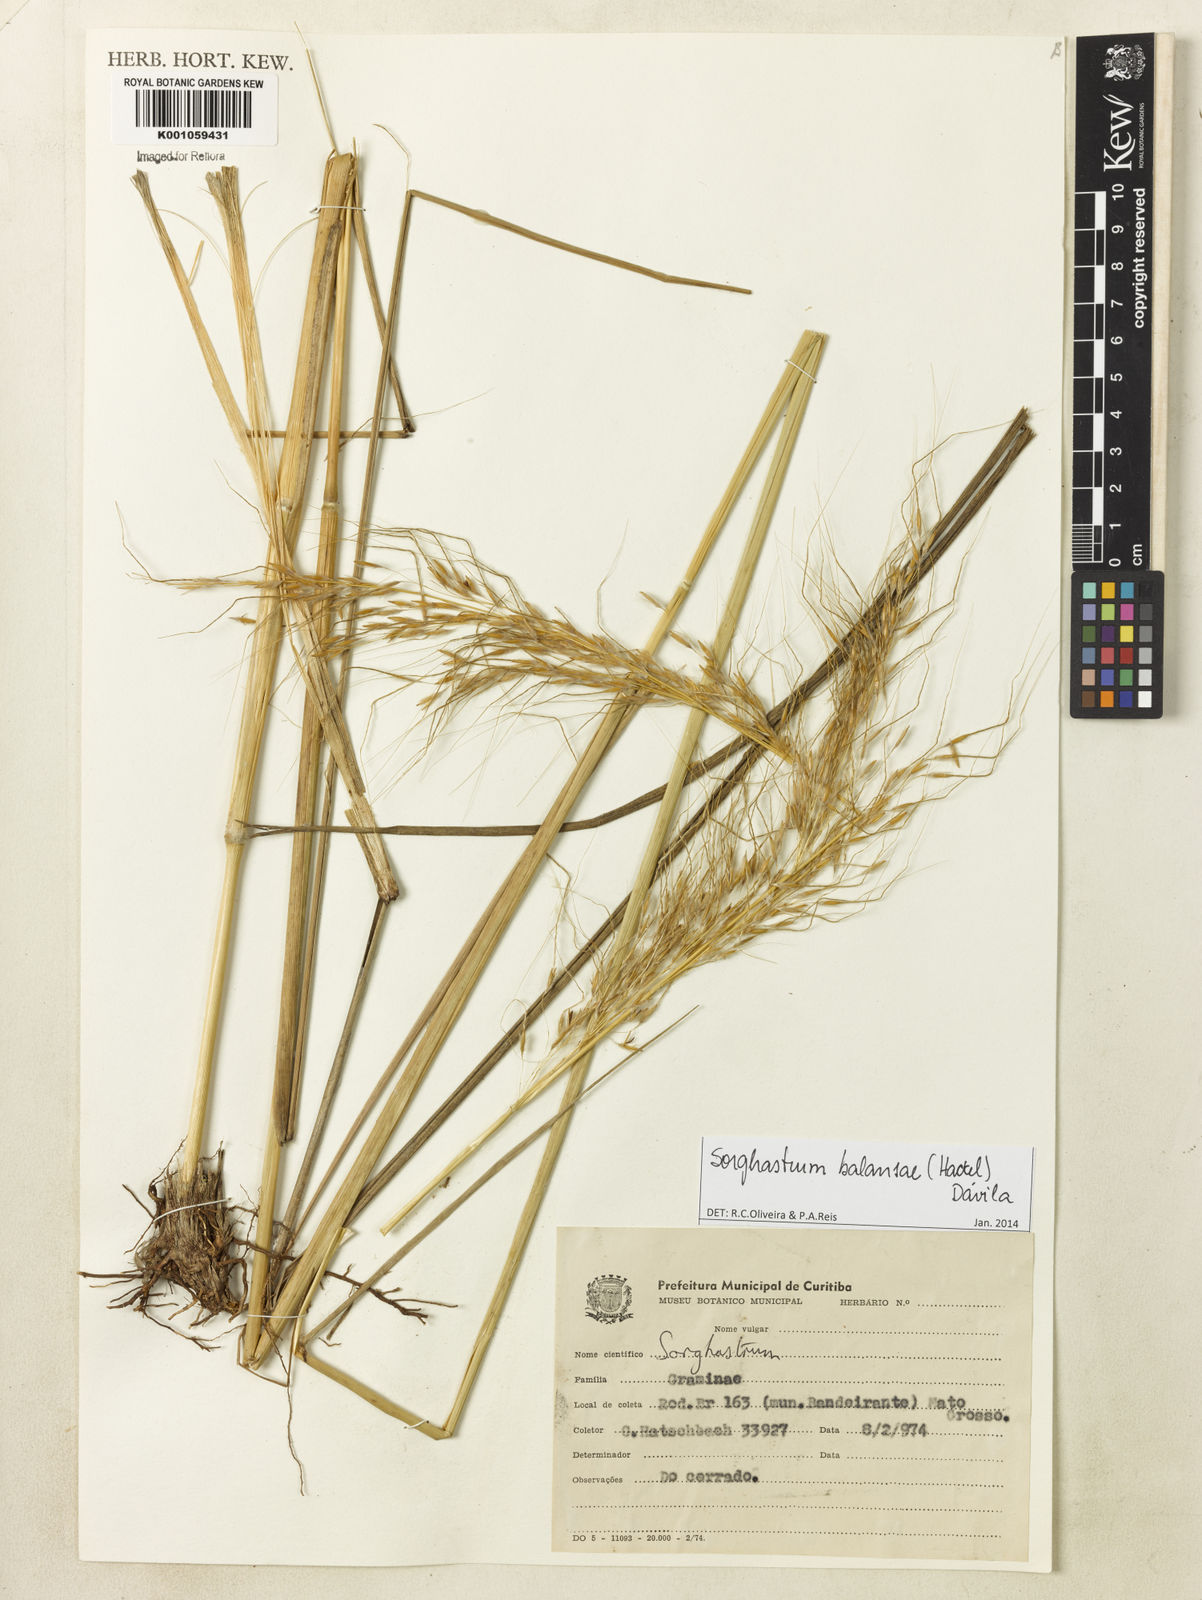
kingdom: Plantae
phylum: Tracheophyta
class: Liliopsida
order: Poales
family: Poaceae
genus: Sorghastrum
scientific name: Sorghastrum
